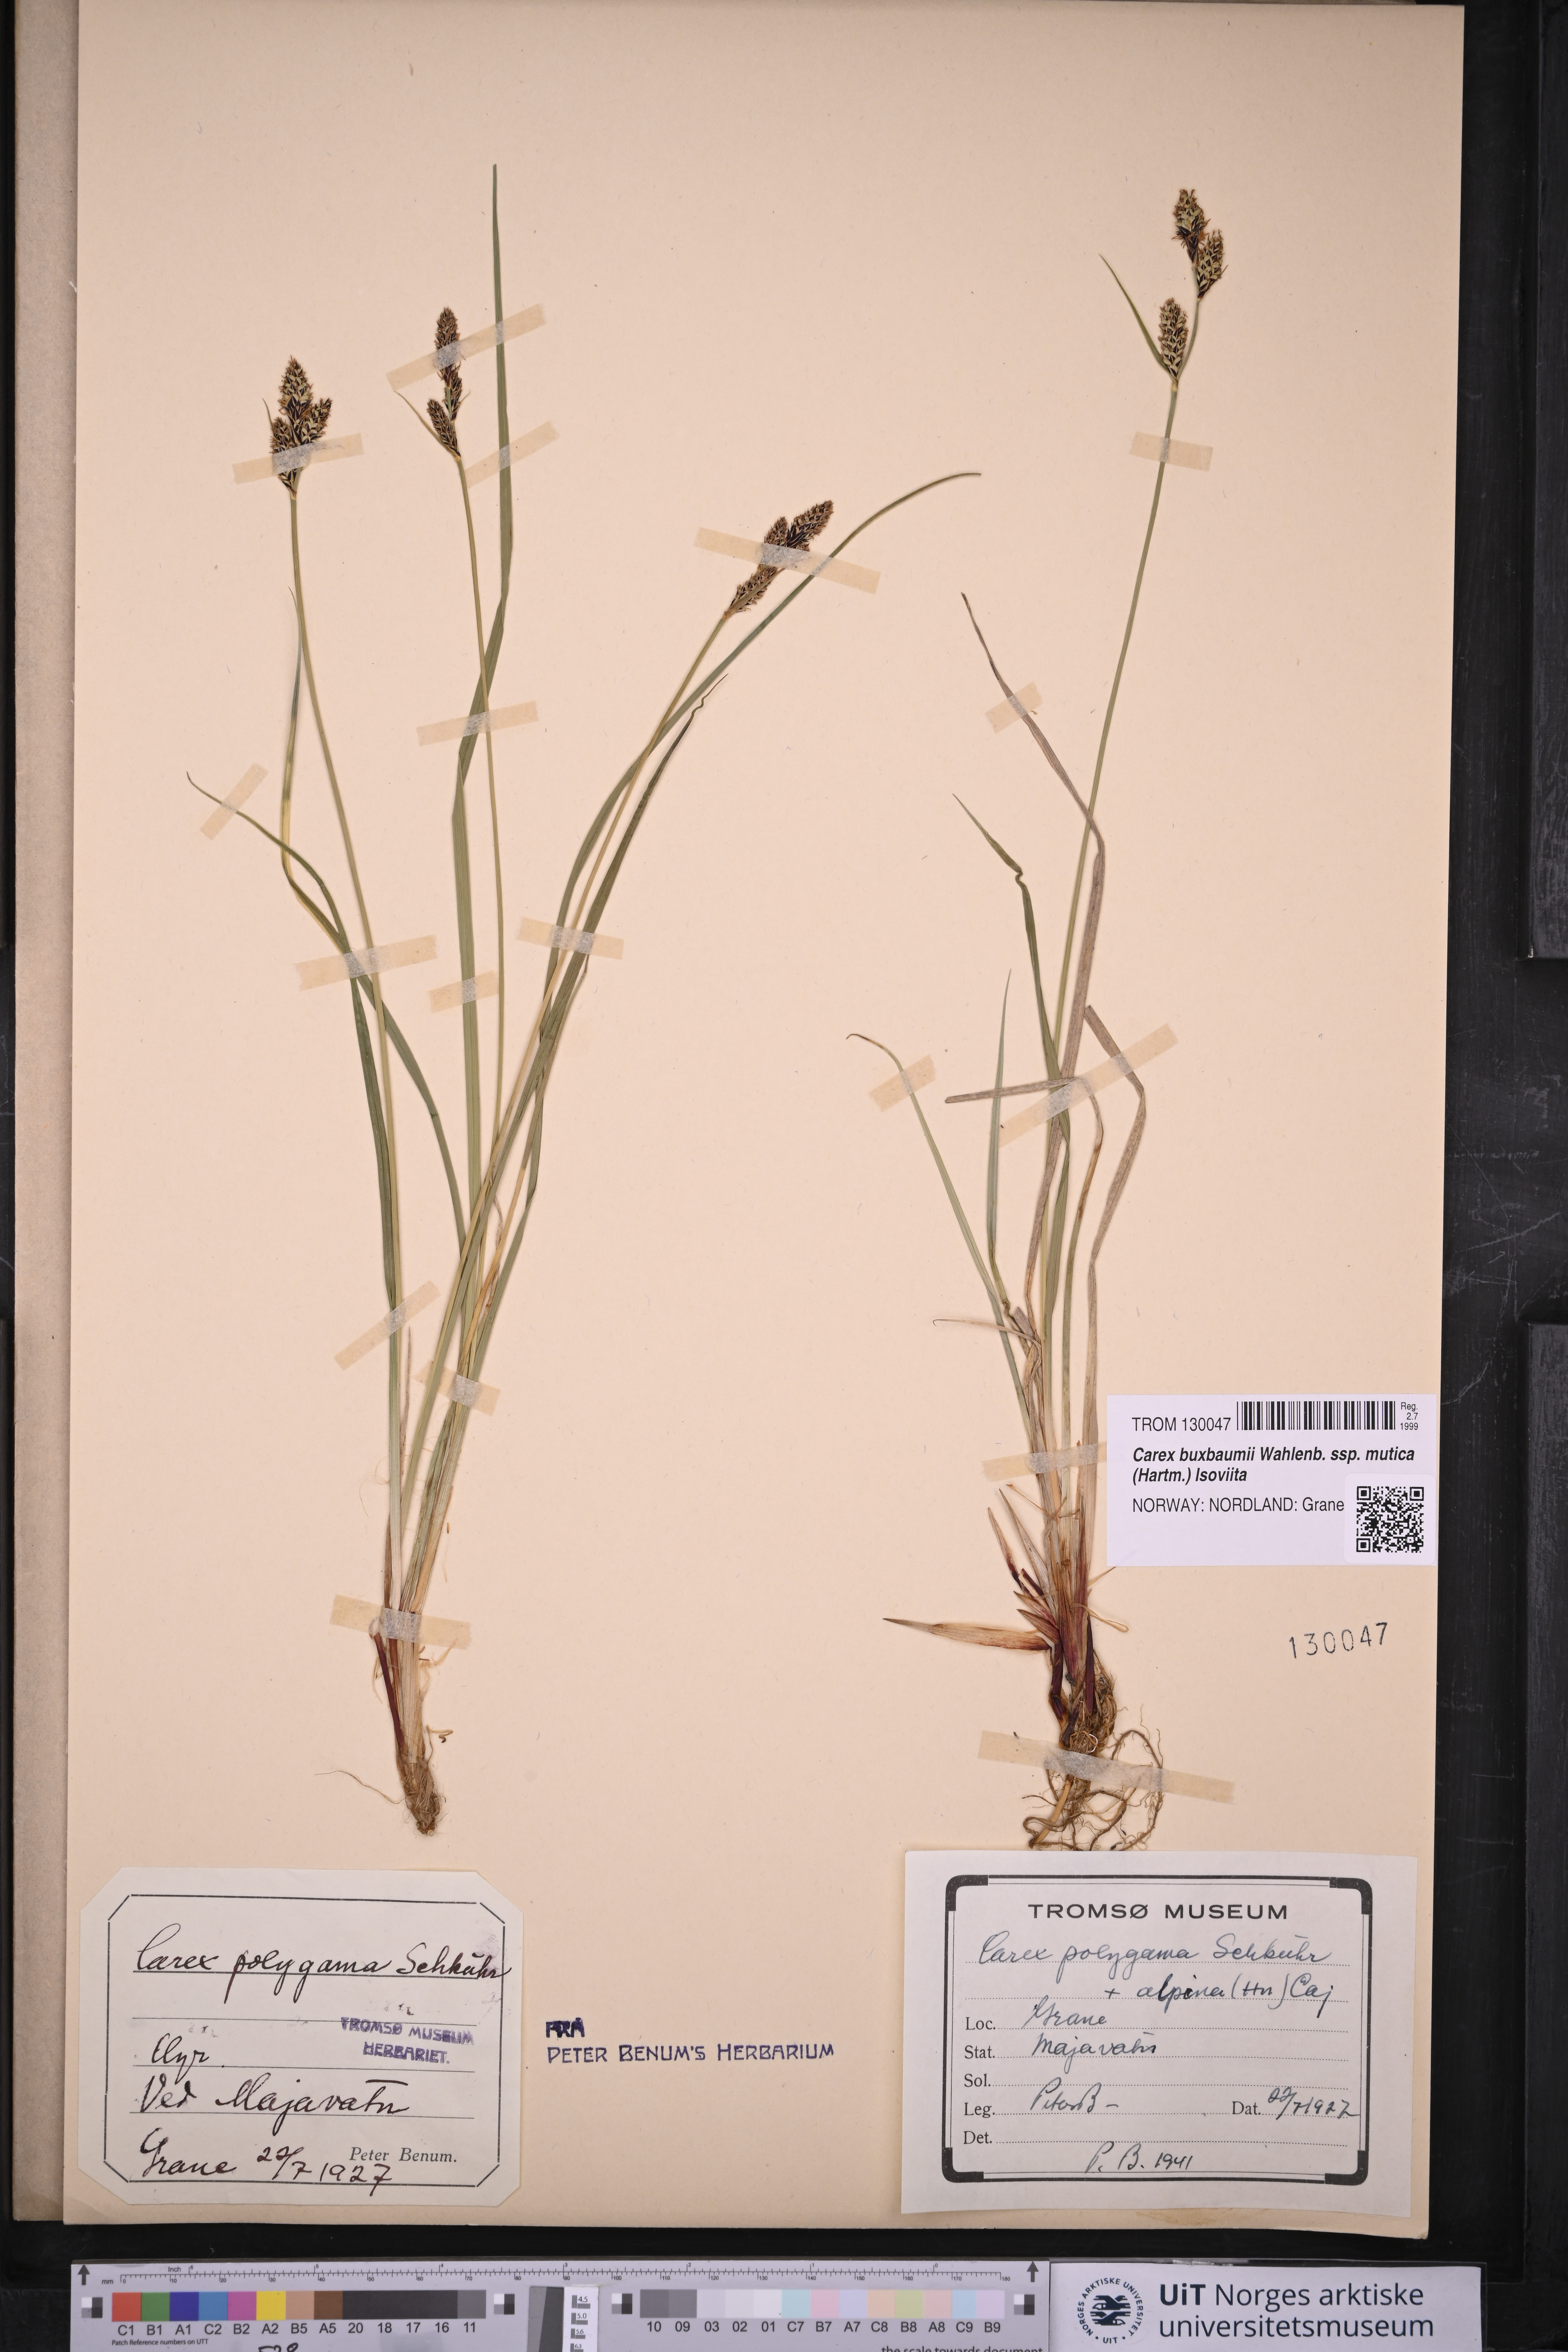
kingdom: Plantae
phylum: Tracheophyta
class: Liliopsida
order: Poales
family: Cyperaceae
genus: Carex
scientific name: Carex adelostoma
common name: Circumpolar sedge
